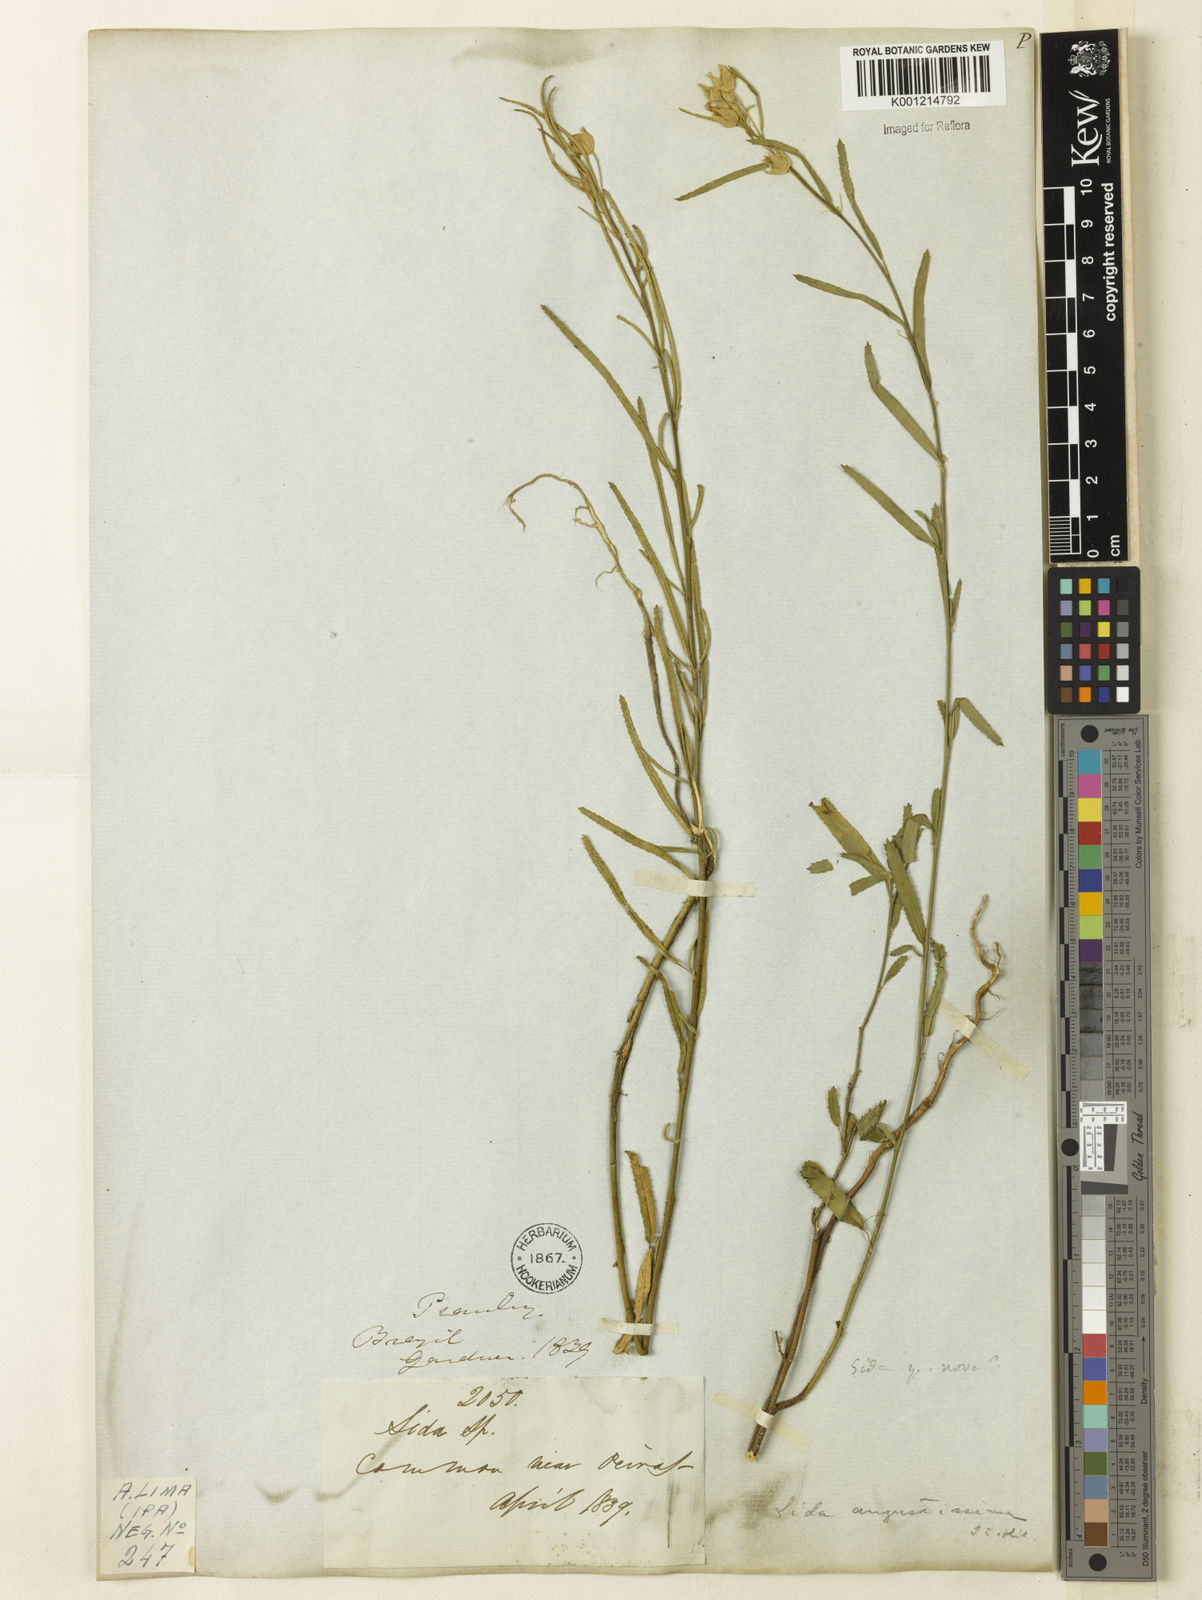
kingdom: Plantae
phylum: Tracheophyta
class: Magnoliopsida
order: Malvales
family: Malvaceae
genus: Sida
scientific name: Sida angustissima
